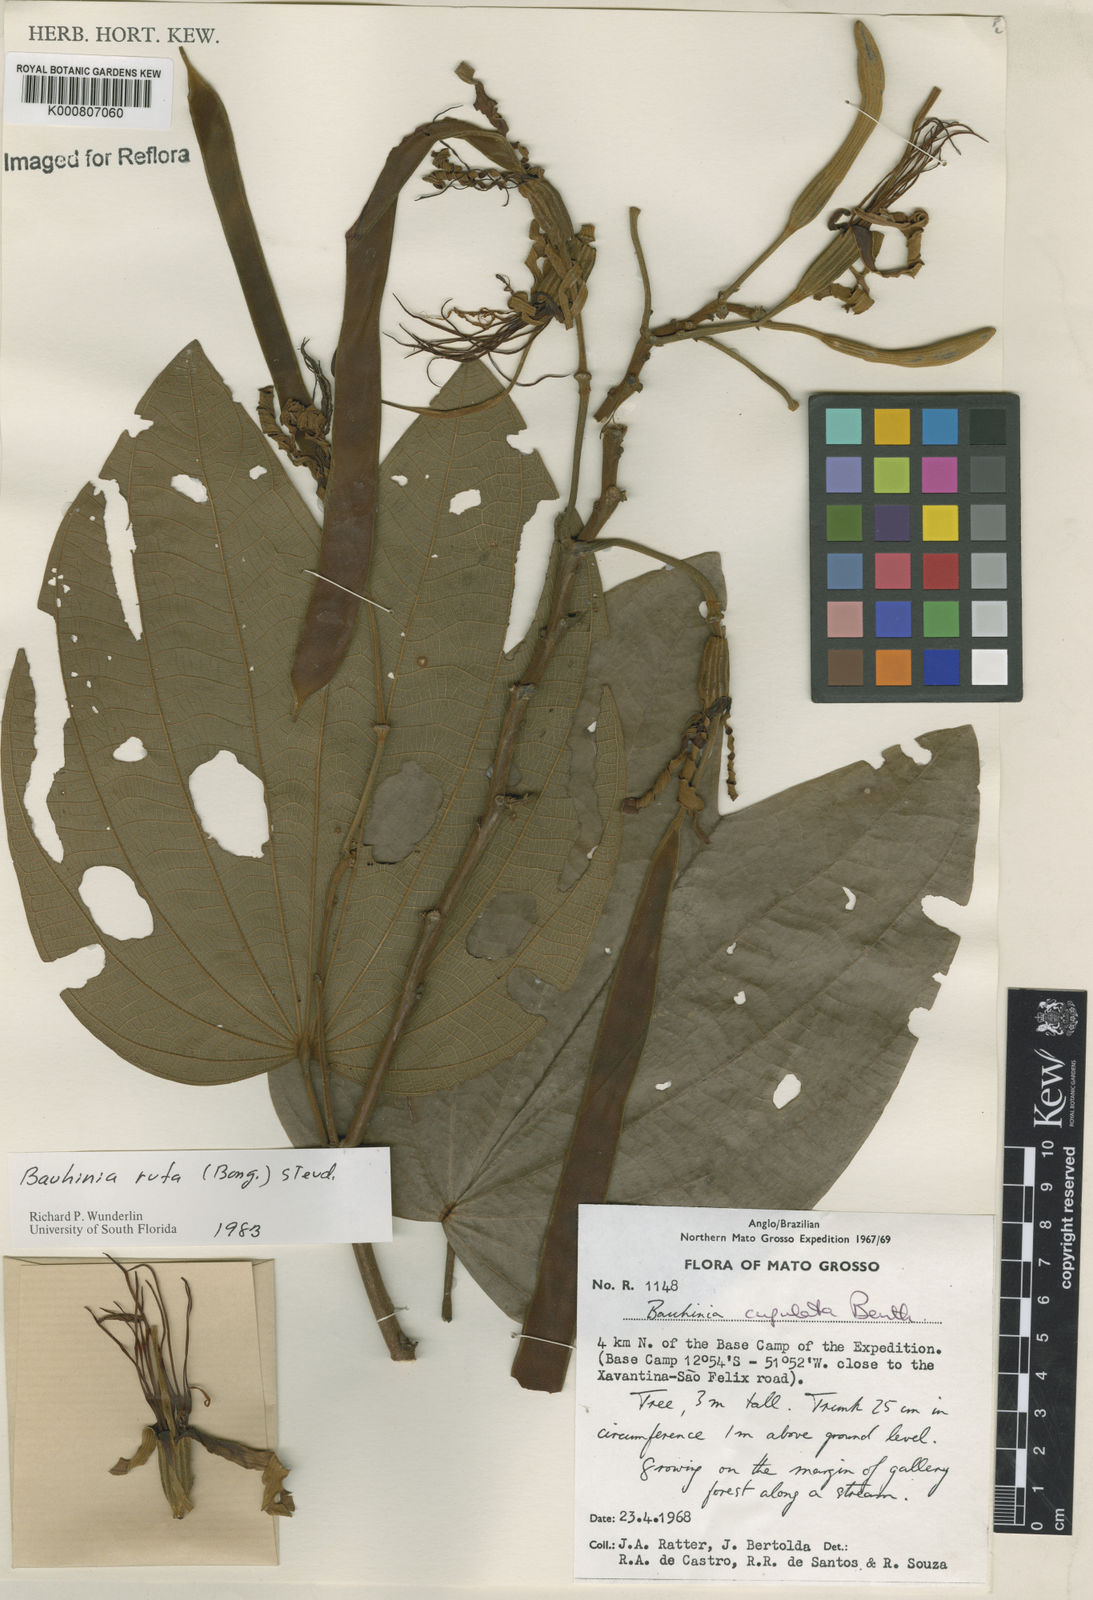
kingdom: Plantae
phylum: Tracheophyta
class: Magnoliopsida
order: Fabales
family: Fabaceae
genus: Bauhinia
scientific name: Bauhinia rufa
